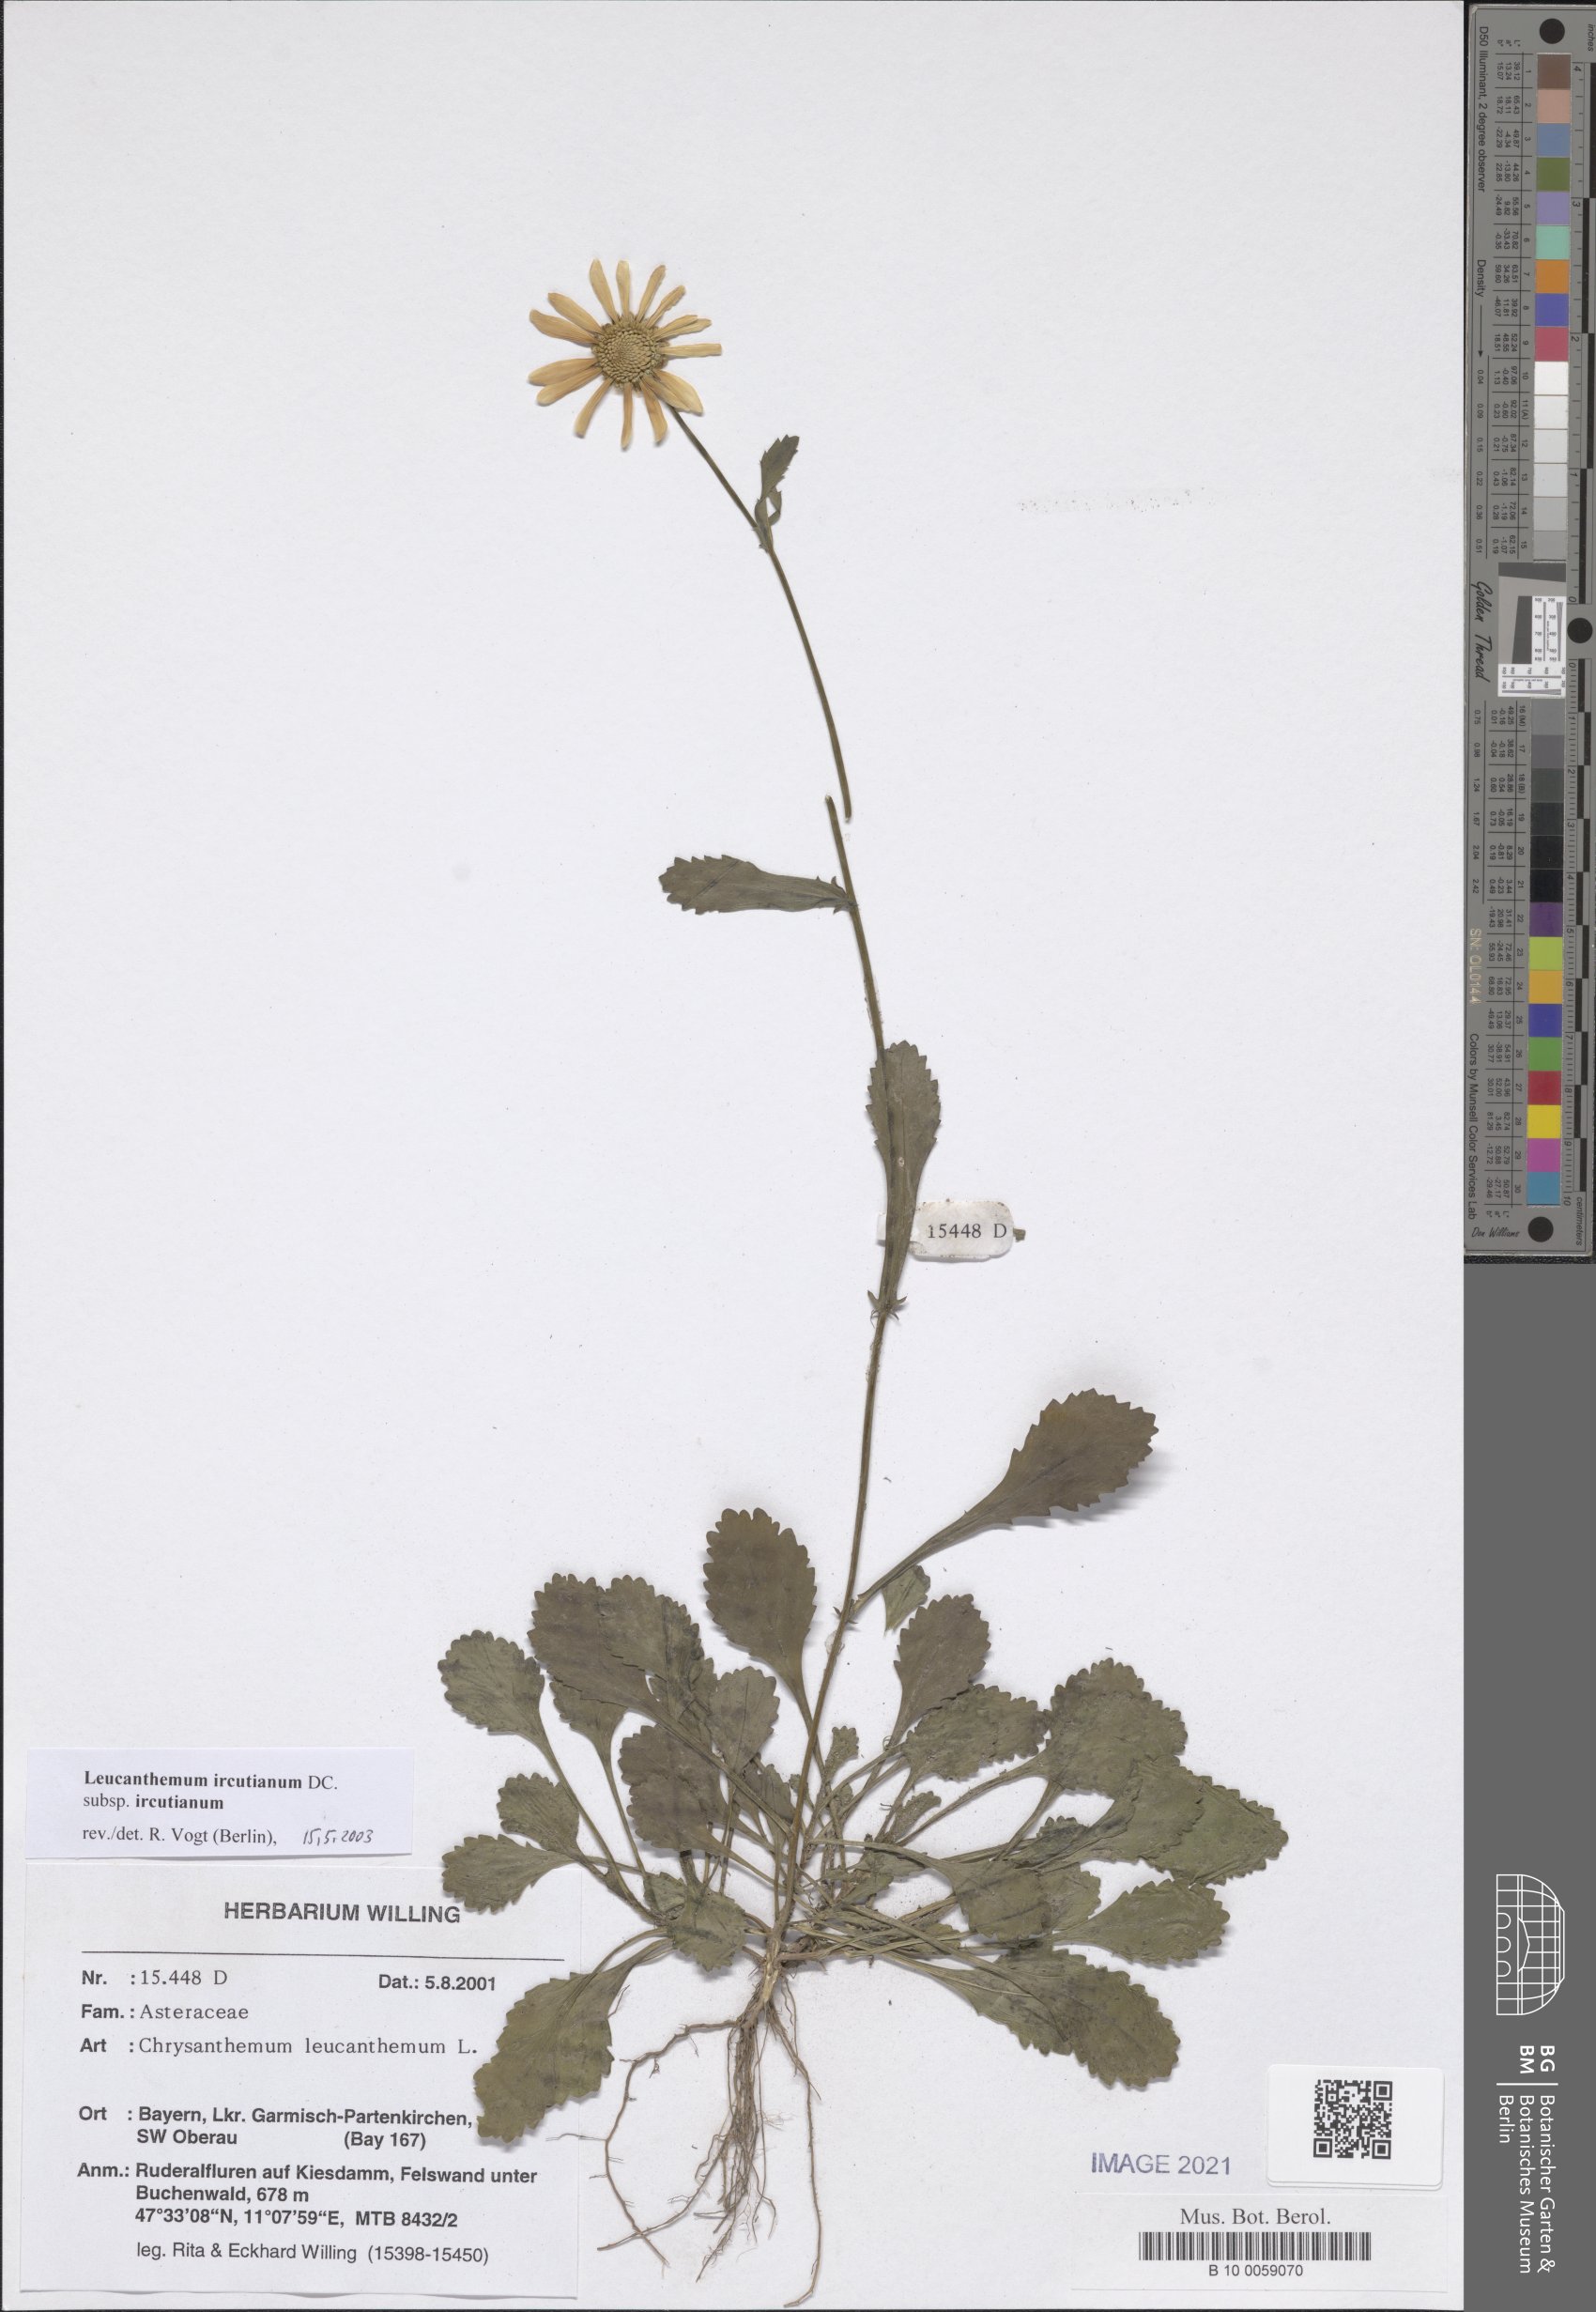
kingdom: Plantae
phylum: Tracheophyta
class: Magnoliopsida
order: Asterales
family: Asteraceae
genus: Leucanthemum
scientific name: Leucanthemum ircutianum
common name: Daisy
